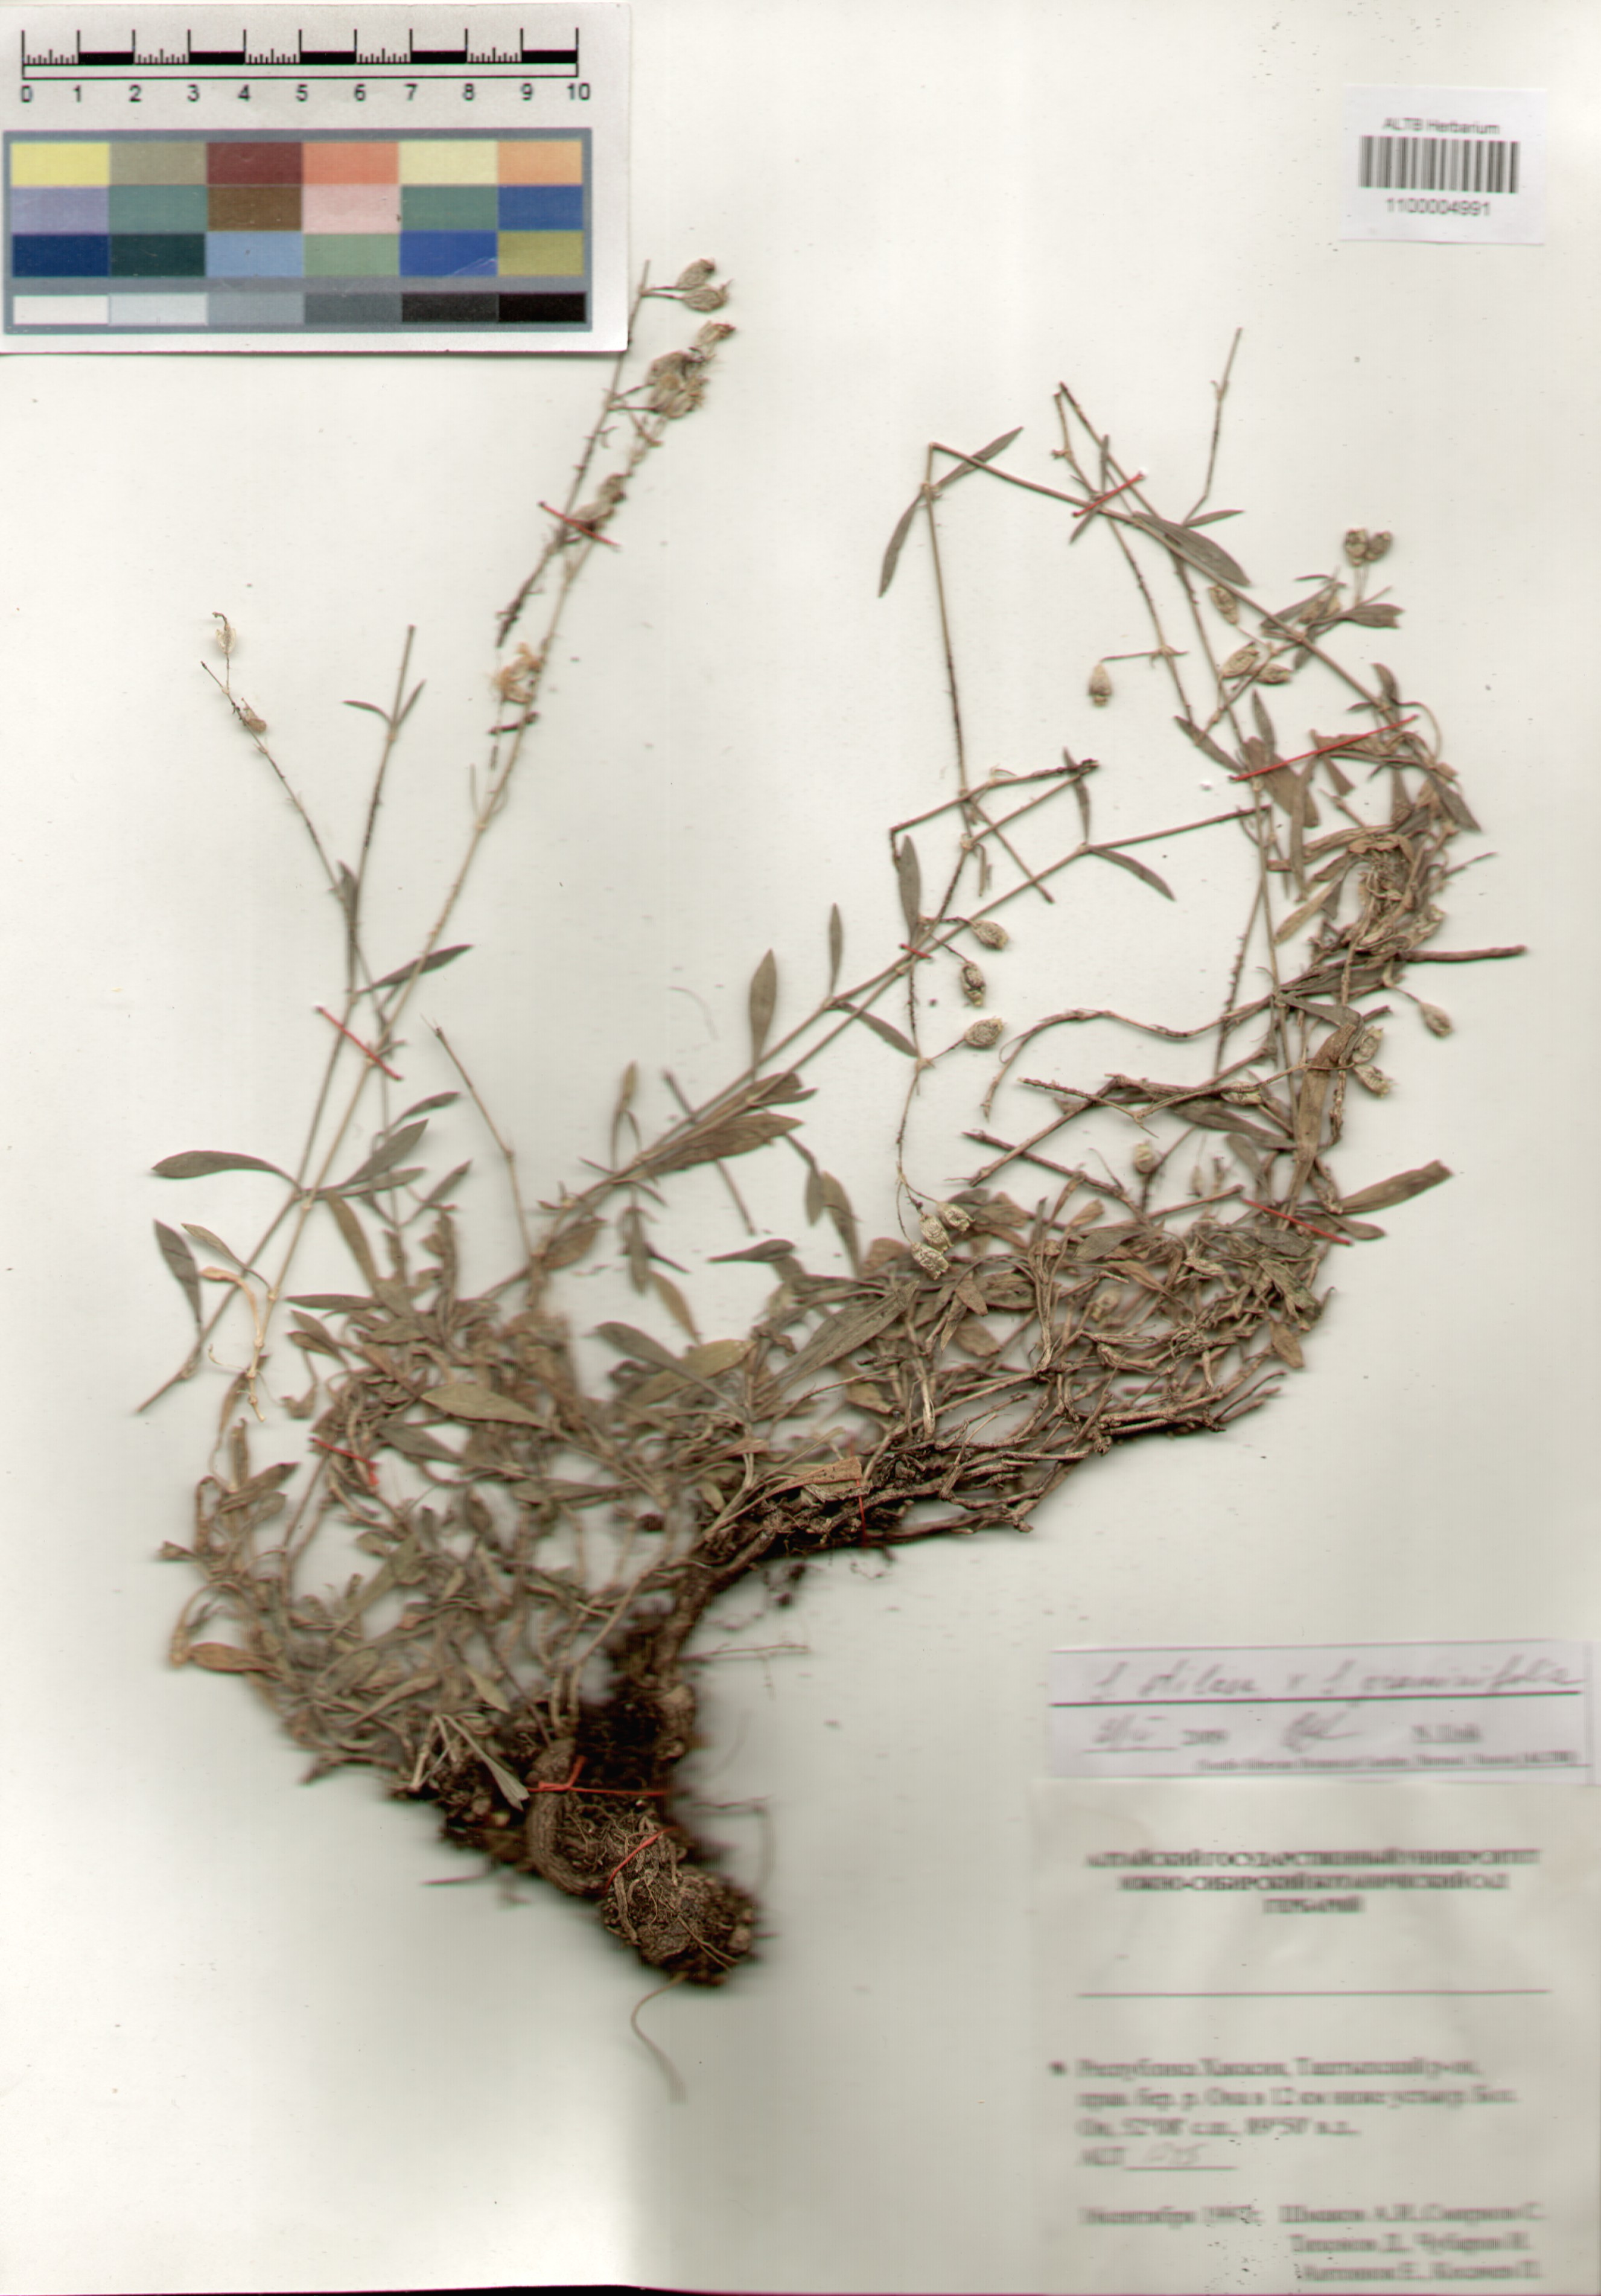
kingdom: Plantae
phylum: Tracheophyta
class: Magnoliopsida
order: Caryophyllales
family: Caryophyllaceae
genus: Silene
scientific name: Silene graminifolia
